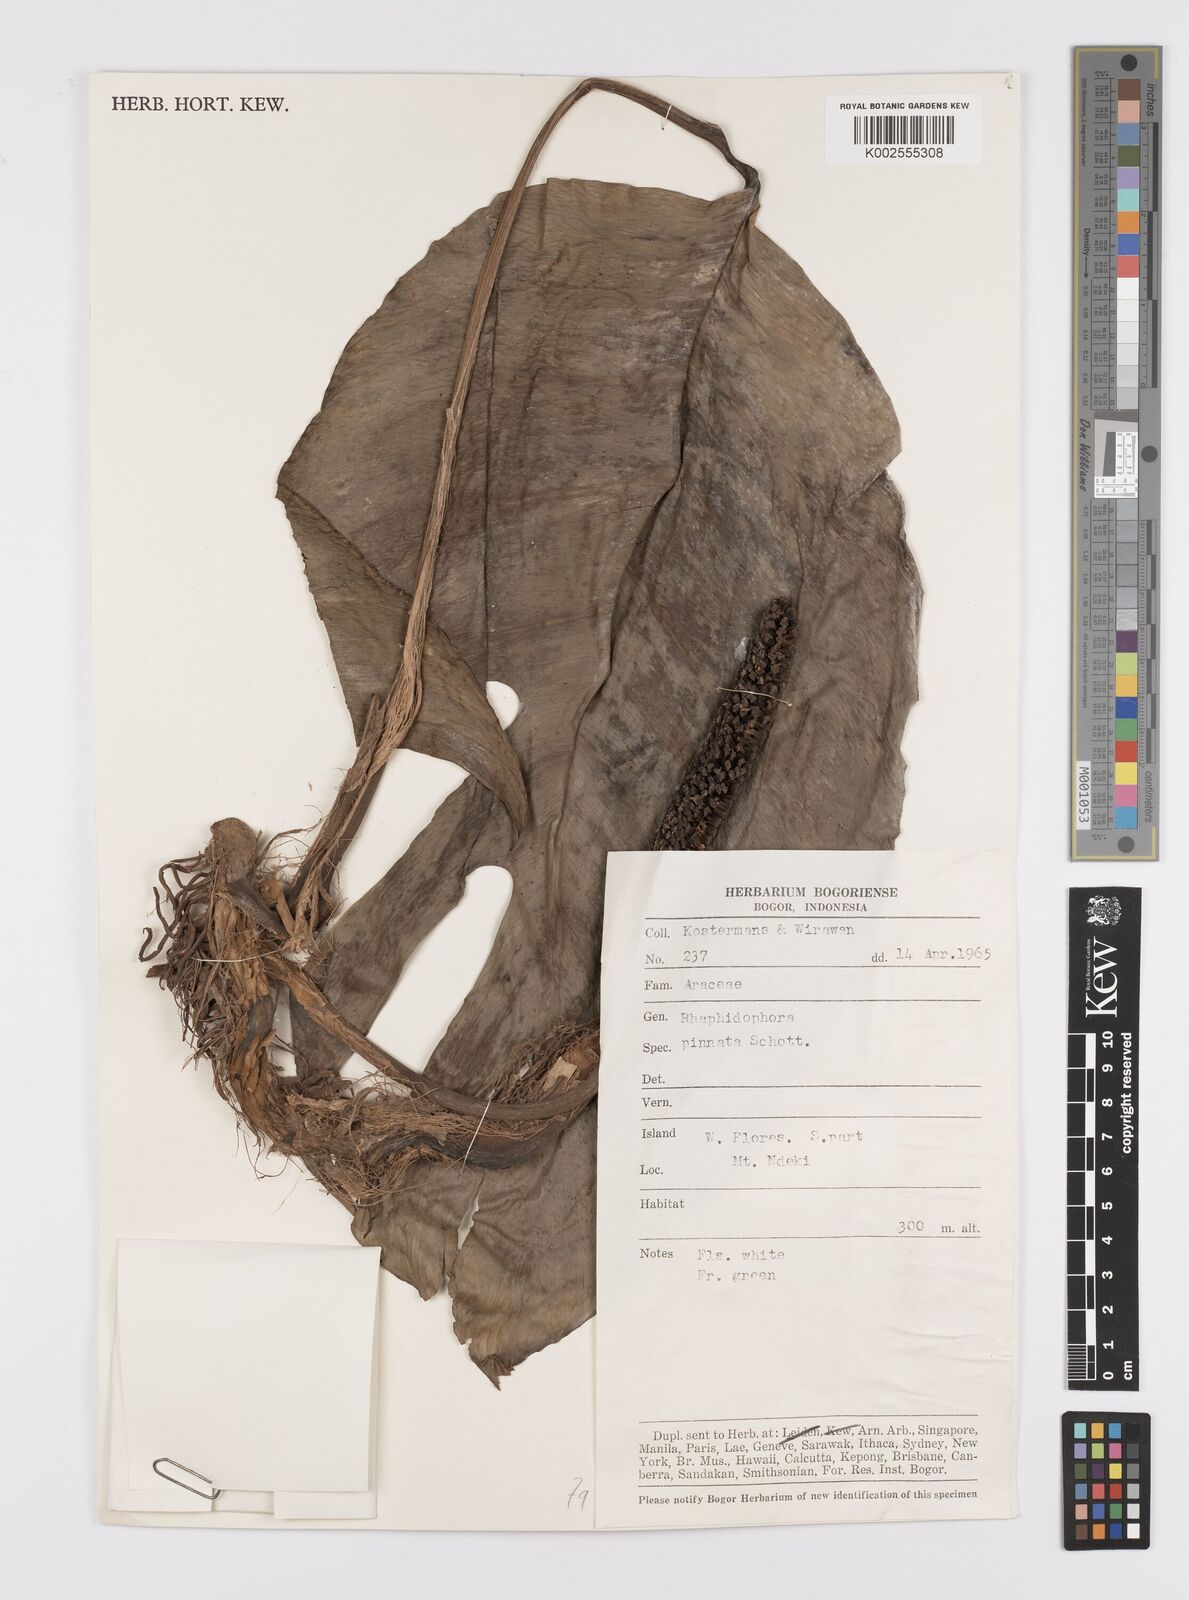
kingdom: Plantae
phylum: Tracheophyta
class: Liliopsida
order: Alismatales
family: Araceae
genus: Epipremnum
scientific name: Epipremnum pinnatum
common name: Centipede tongavine
